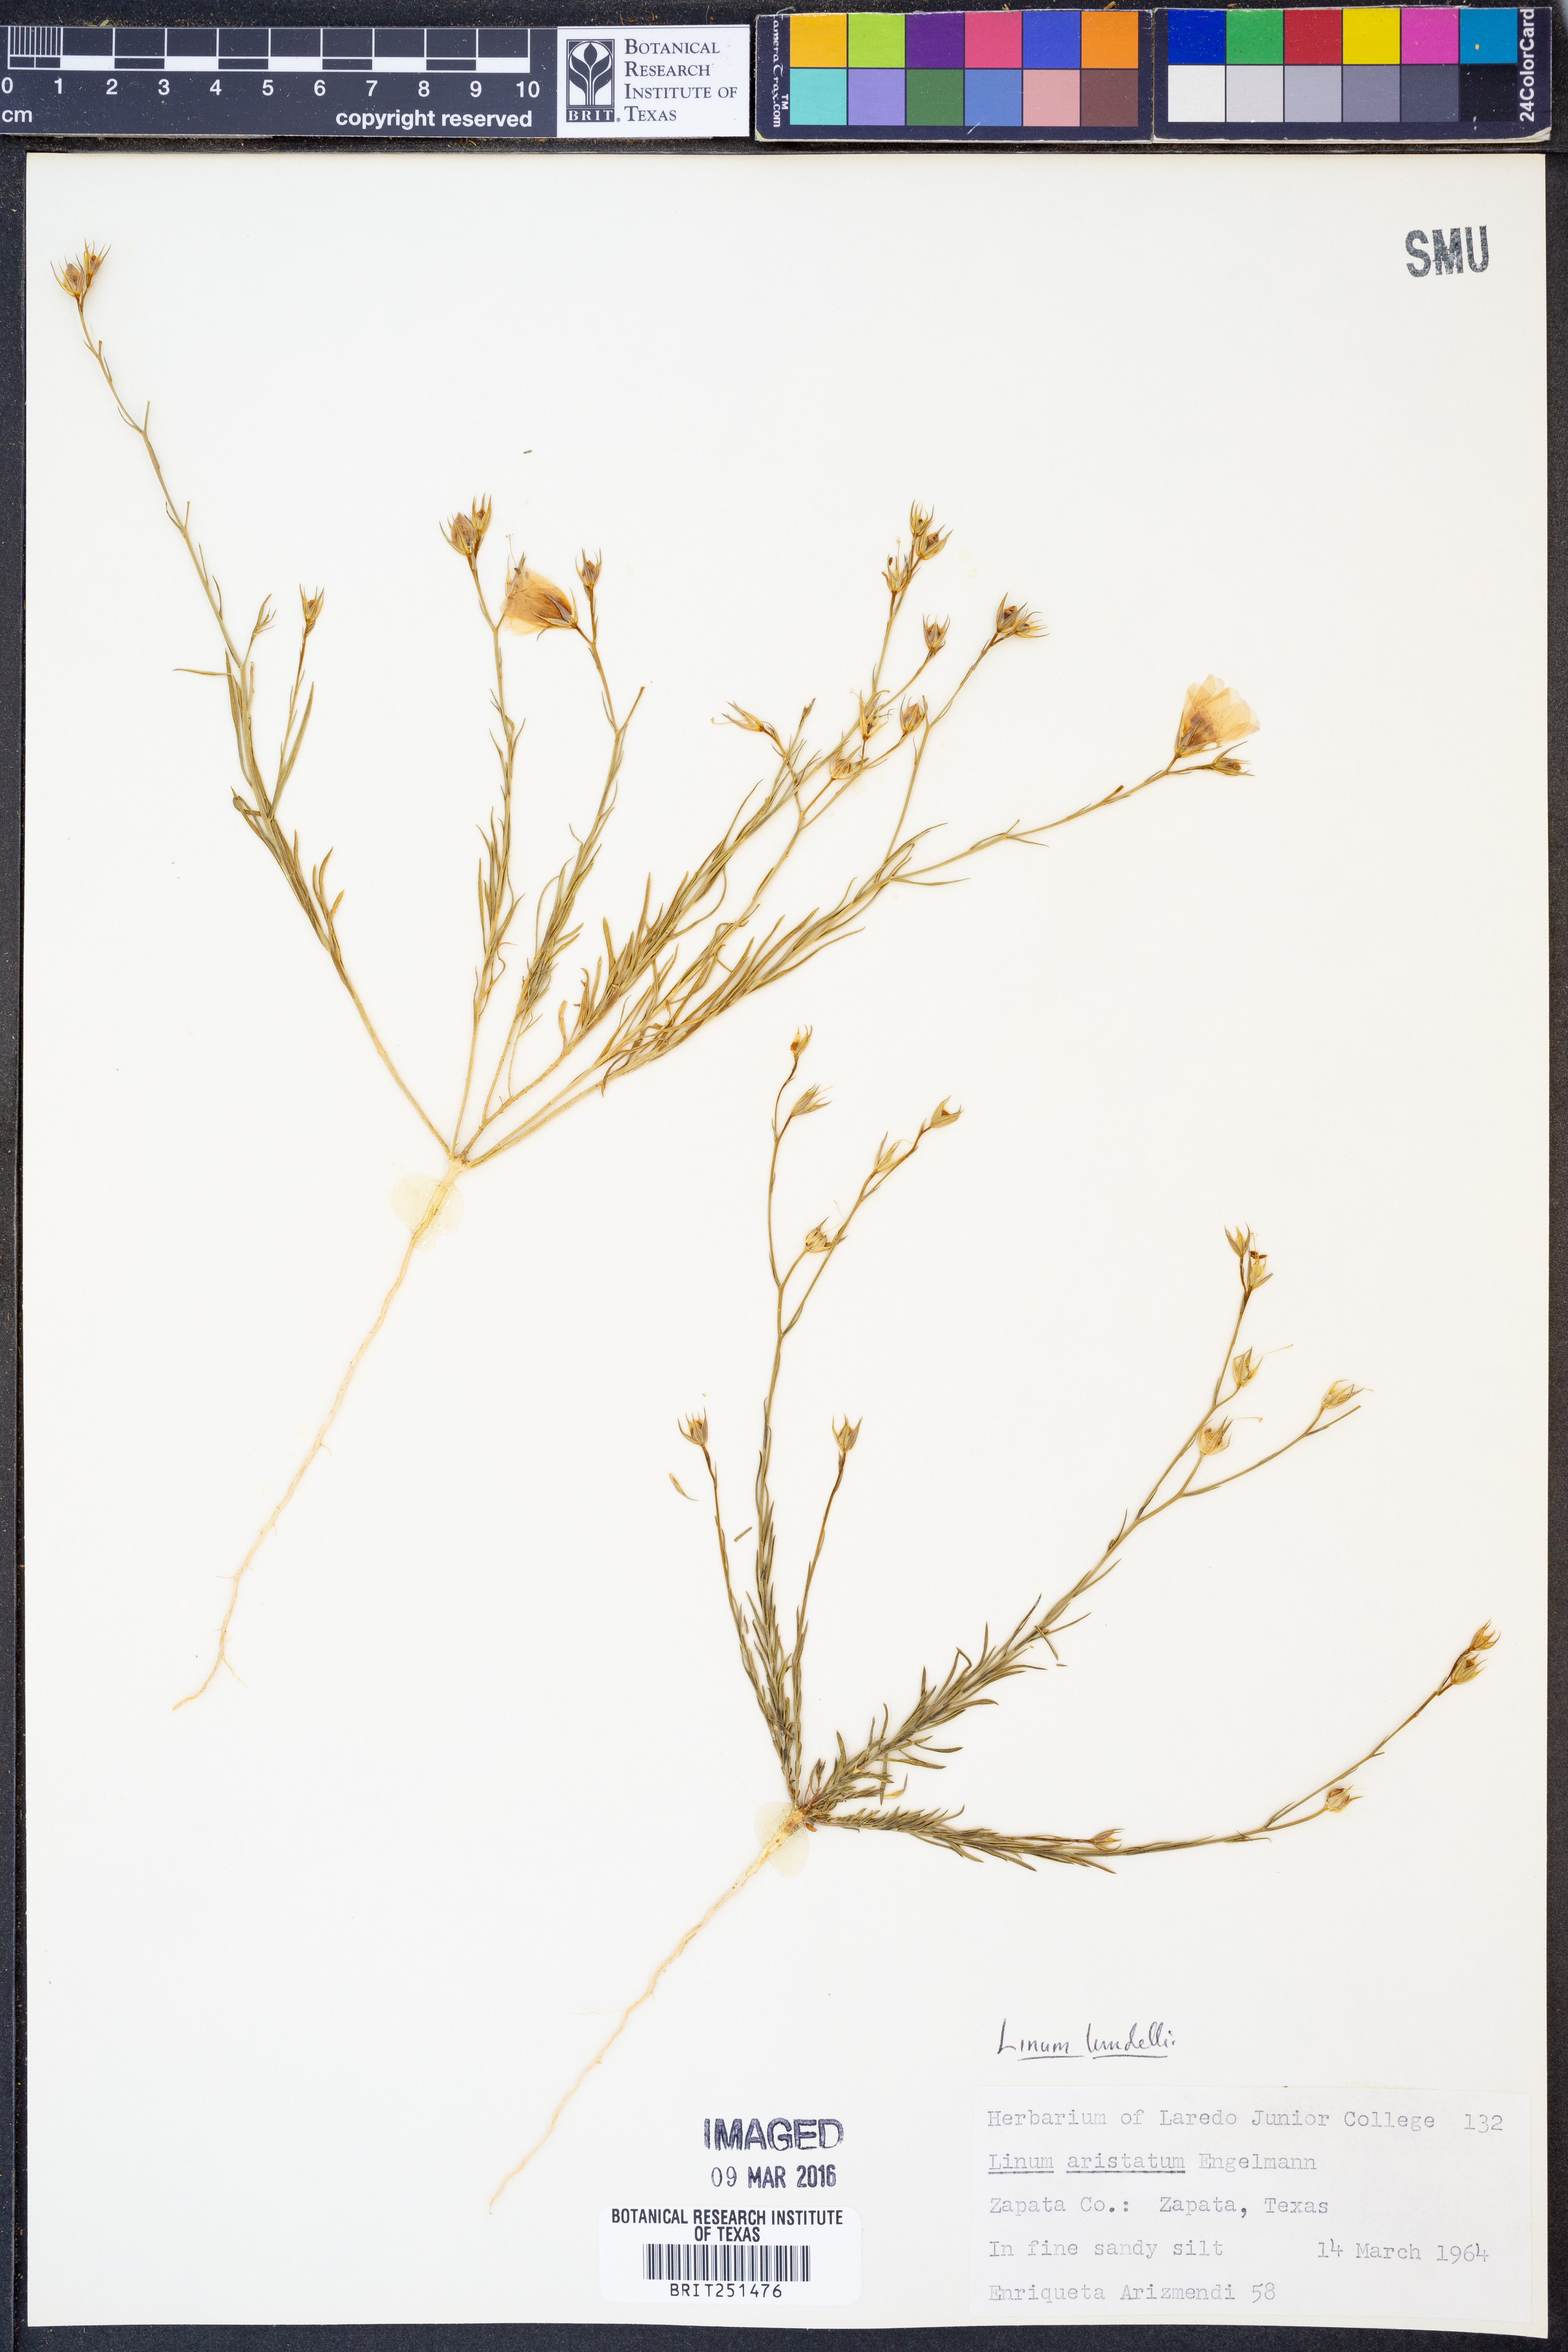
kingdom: Plantae
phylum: Tracheophyta
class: Magnoliopsida
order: Malpighiales
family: Linaceae
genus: Linum
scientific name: Linum lundellii
